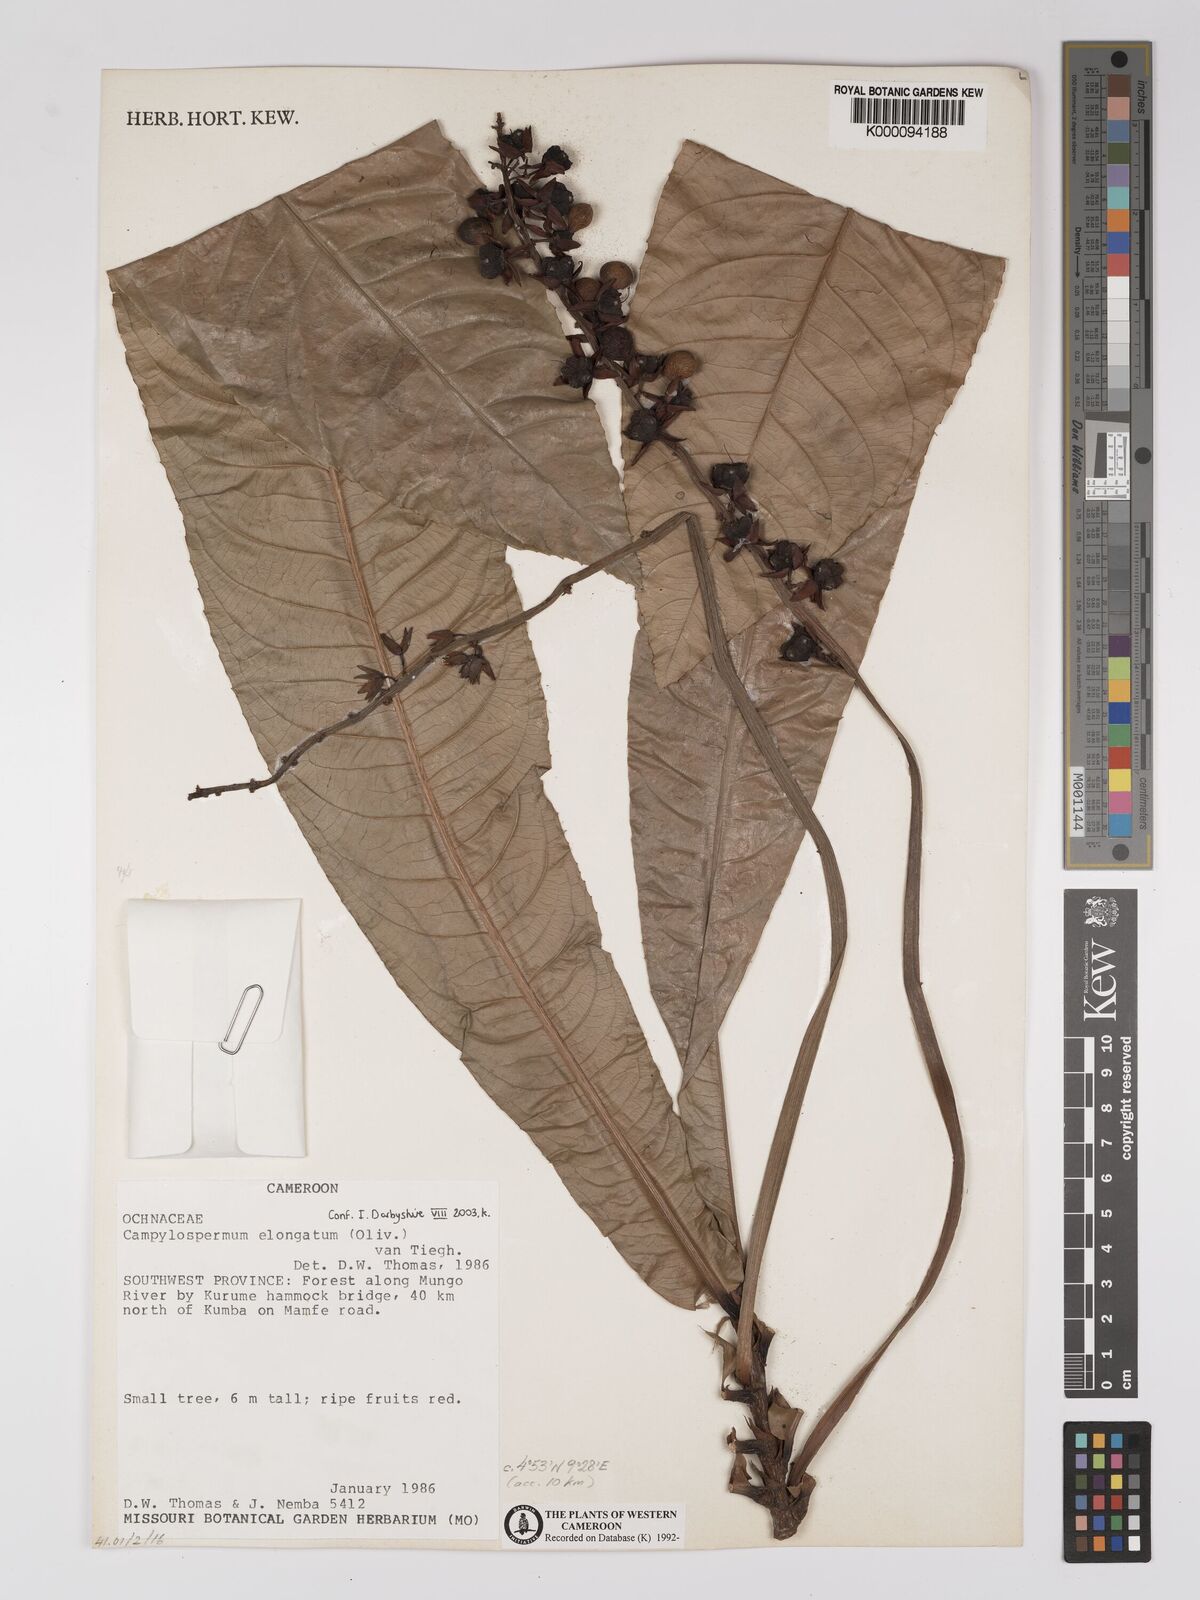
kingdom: Plantae
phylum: Tracheophyta
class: Magnoliopsida
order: Malpighiales
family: Ochnaceae
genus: Gomphia
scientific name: Gomphia elongata
